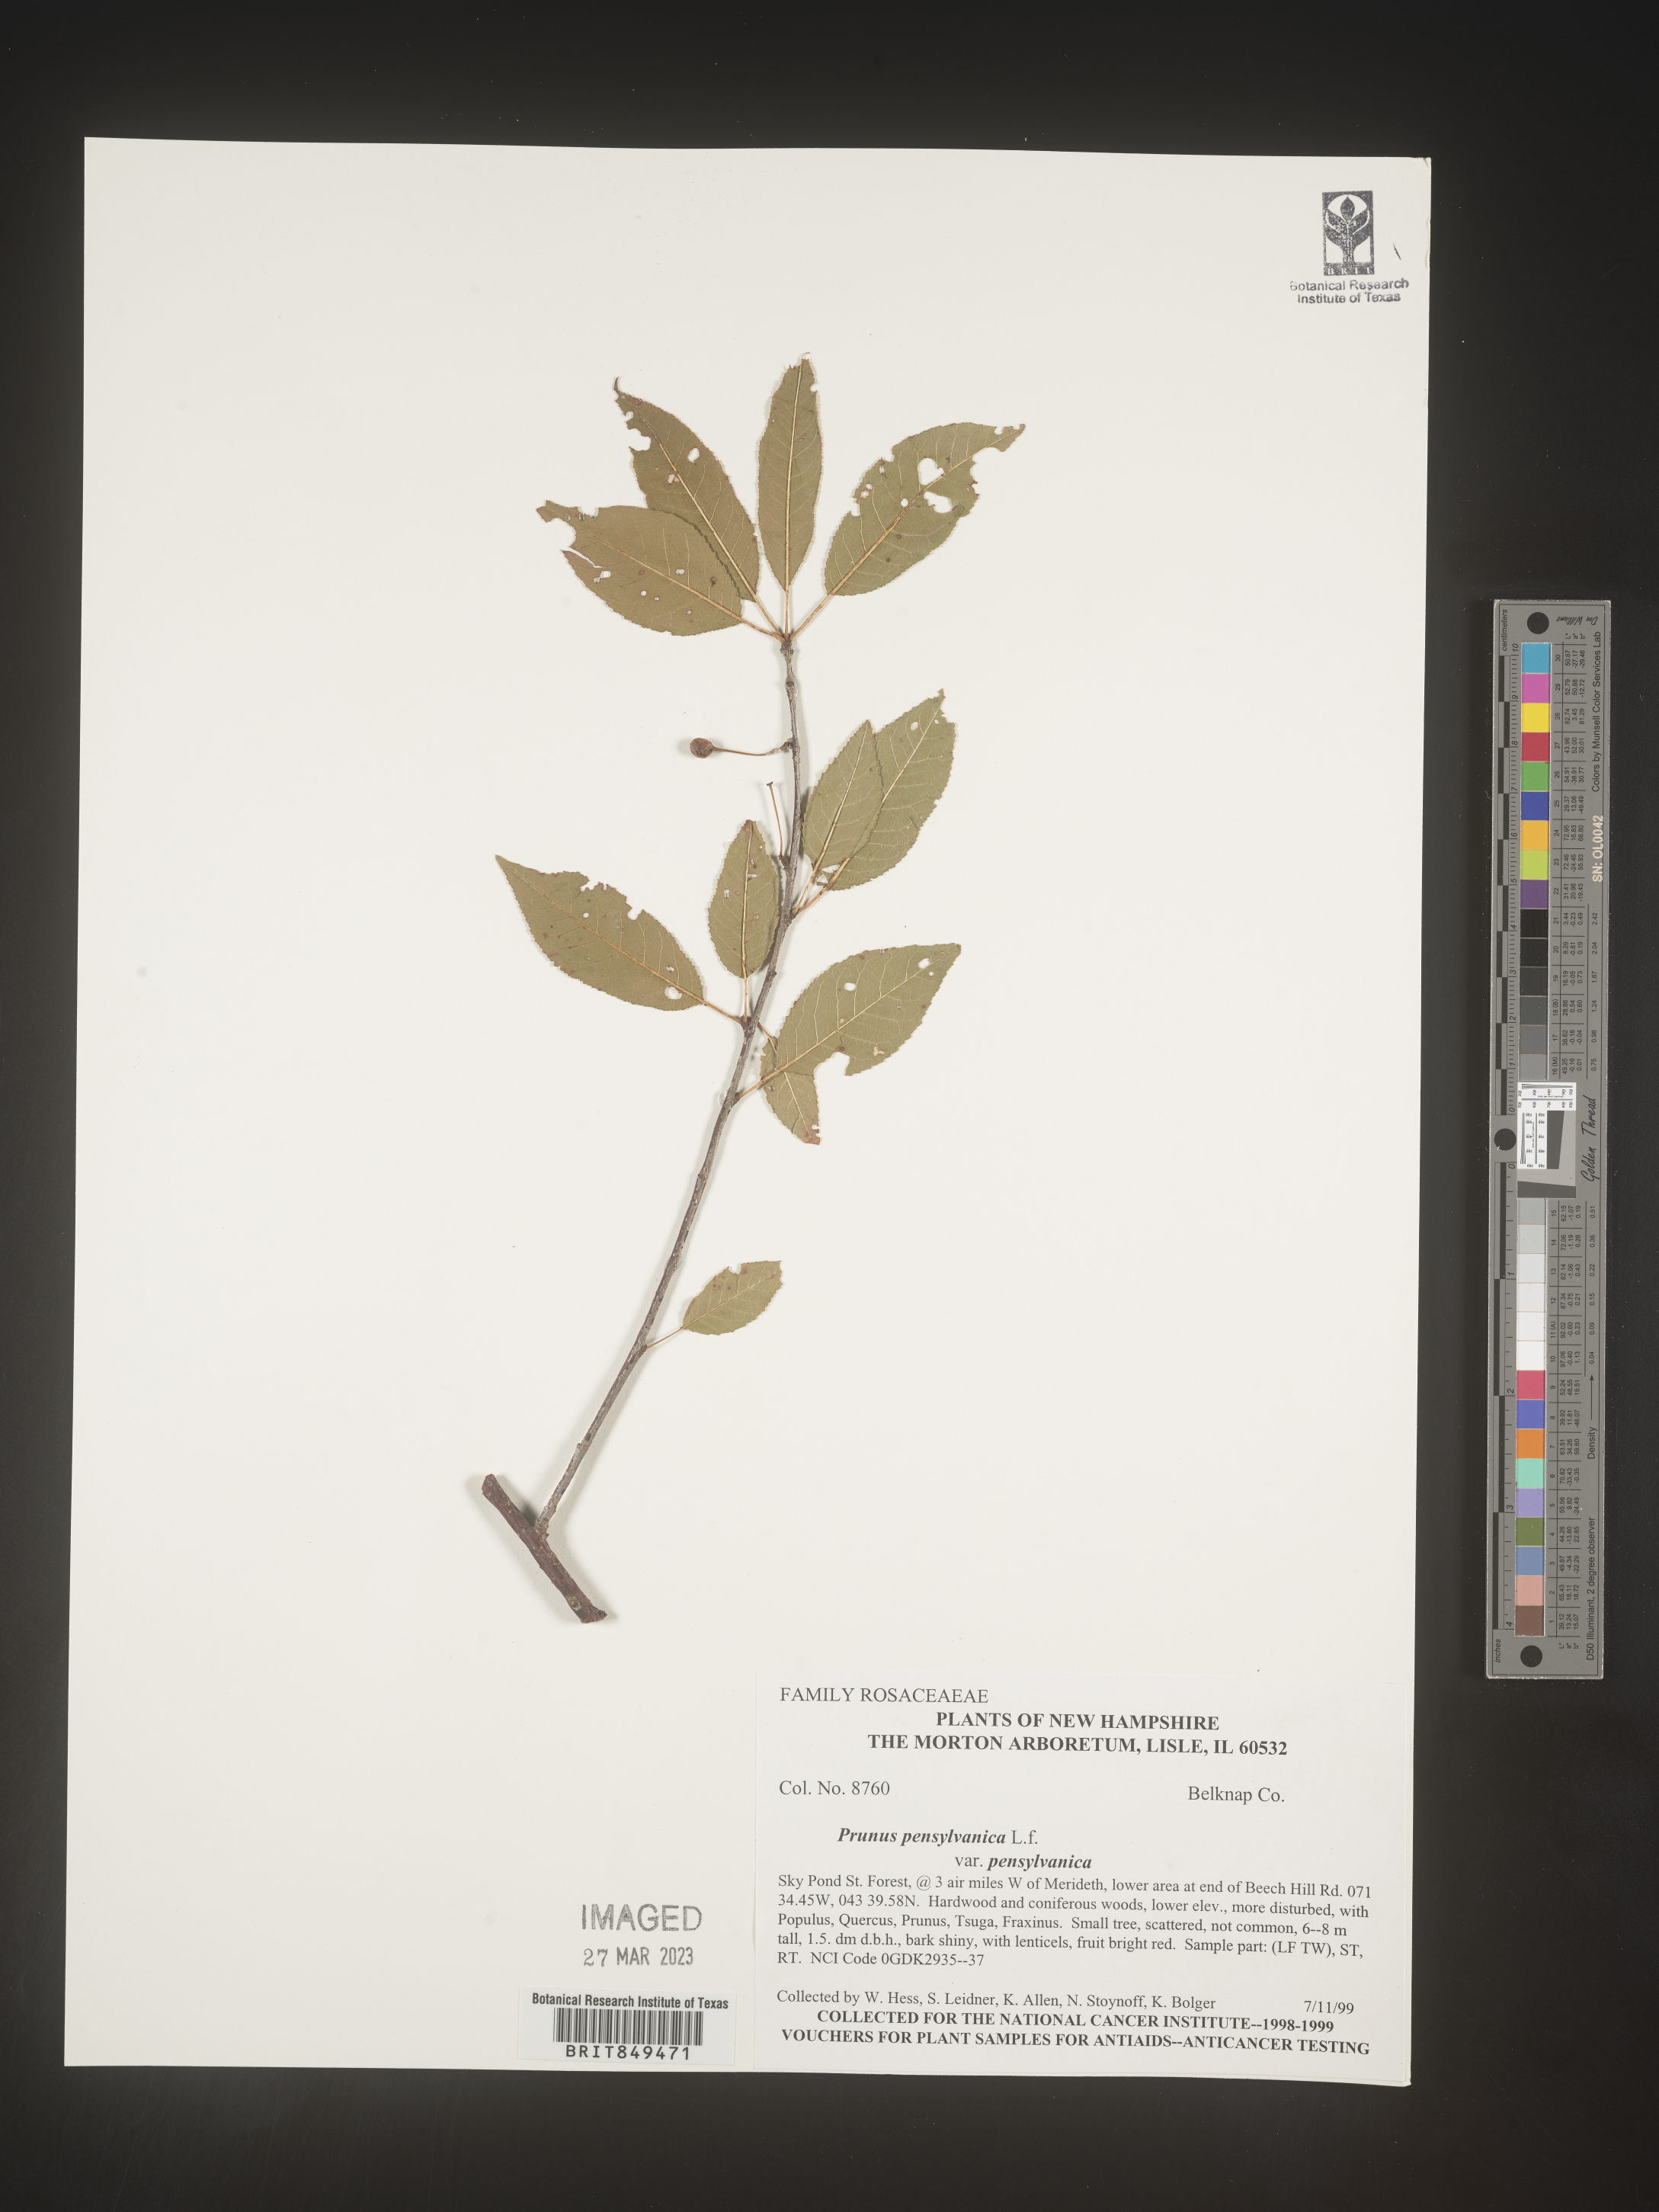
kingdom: Plantae
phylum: Tracheophyta
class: Magnoliopsida
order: Rosales
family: Rosaceae
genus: Prunus
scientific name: Prunus pensylvanica
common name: Pin cherry
